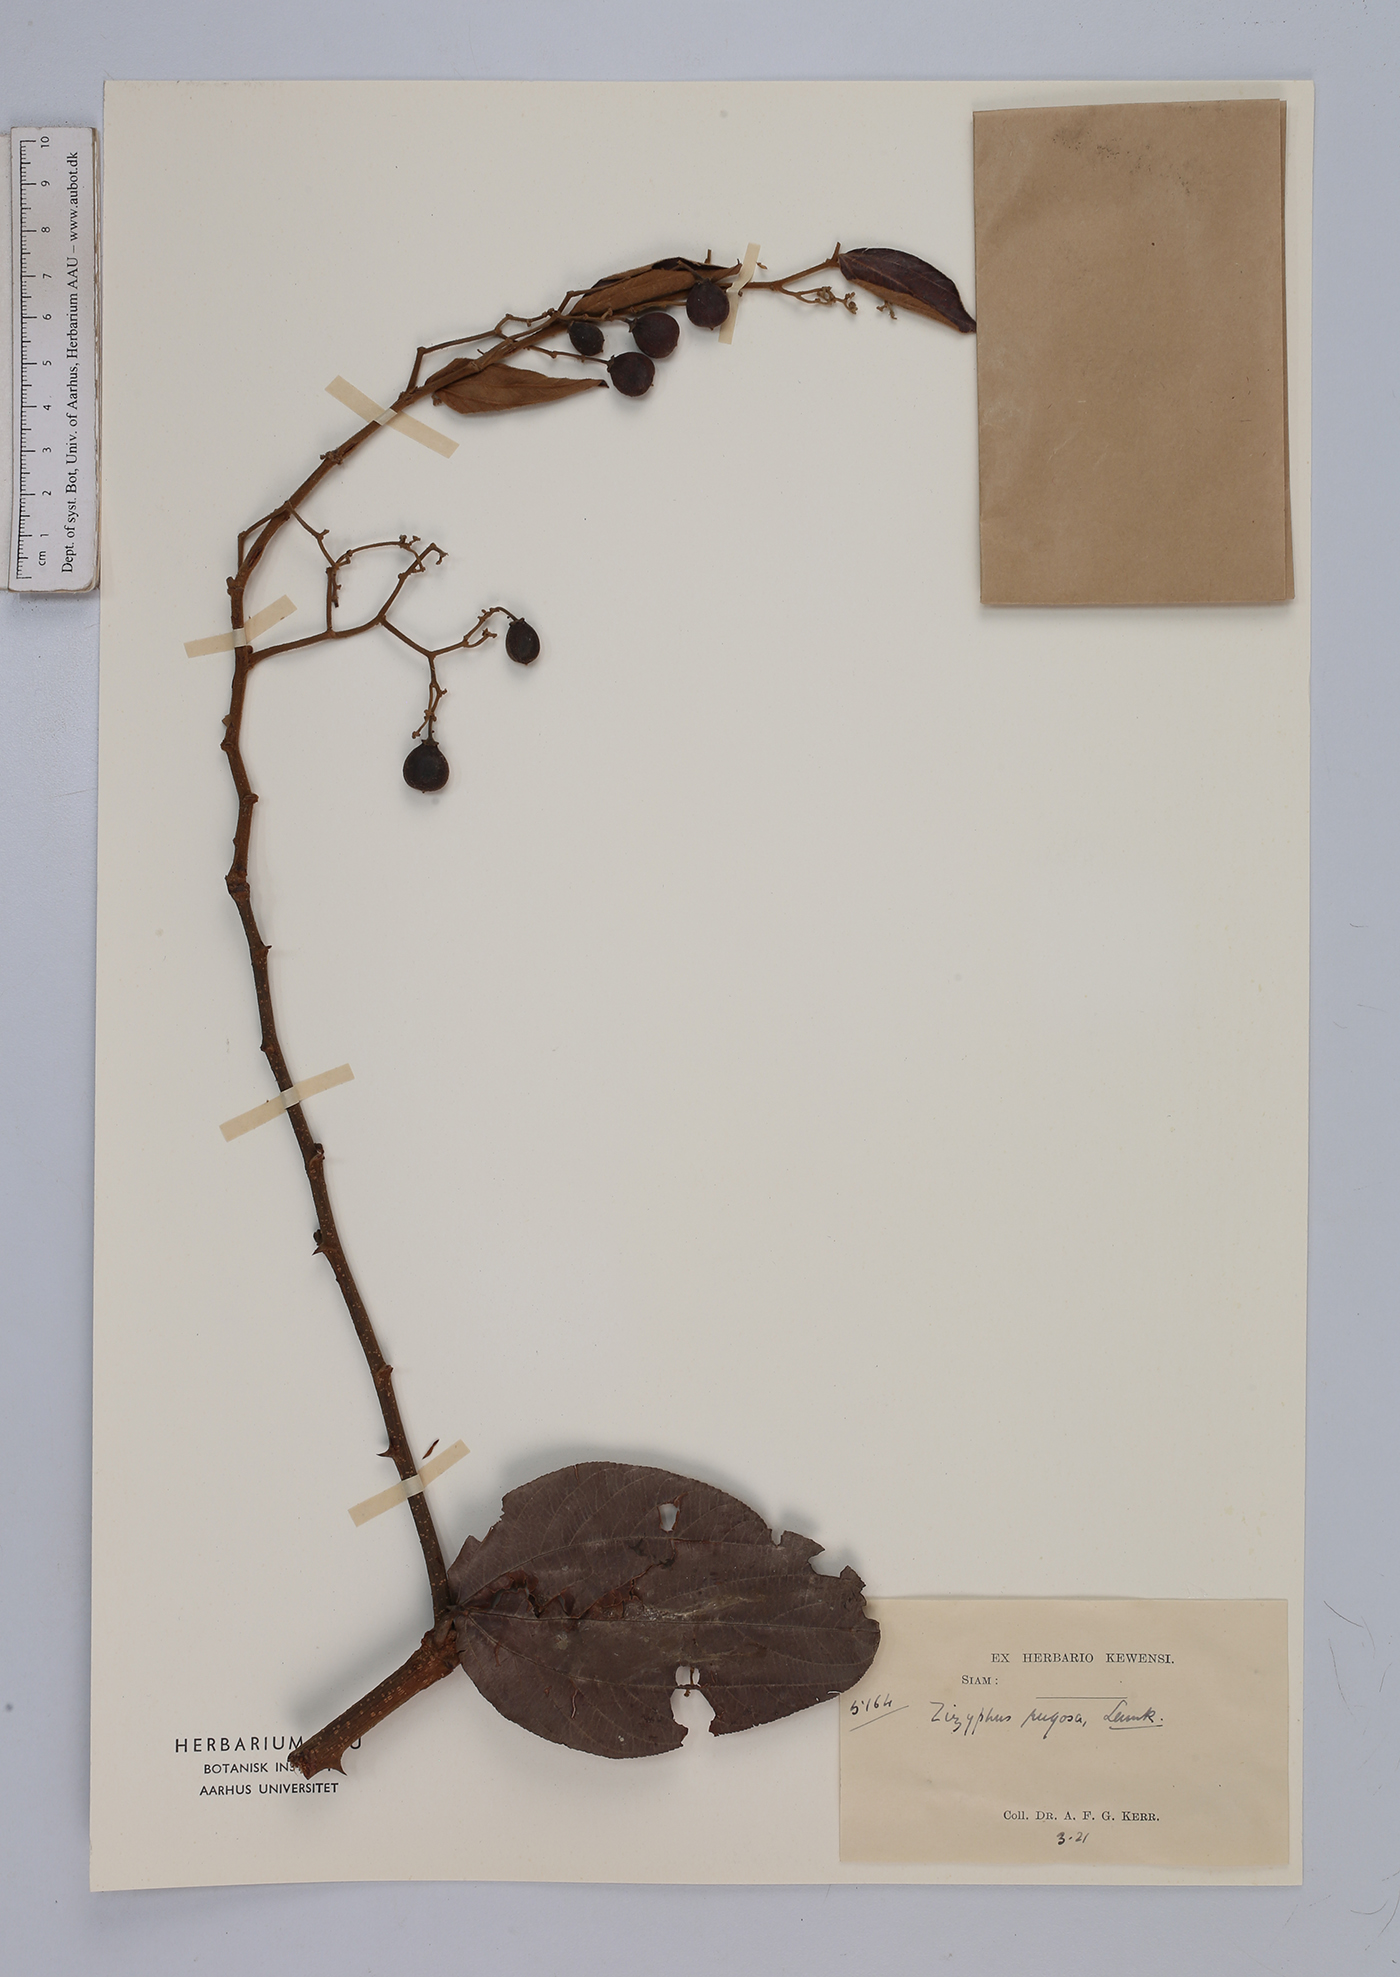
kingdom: Plantae
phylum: Tracheophyta
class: Magnoliopsida
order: Rosales
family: Rhamnaceae
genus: Ziziphus
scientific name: Ziziphus rugosa
